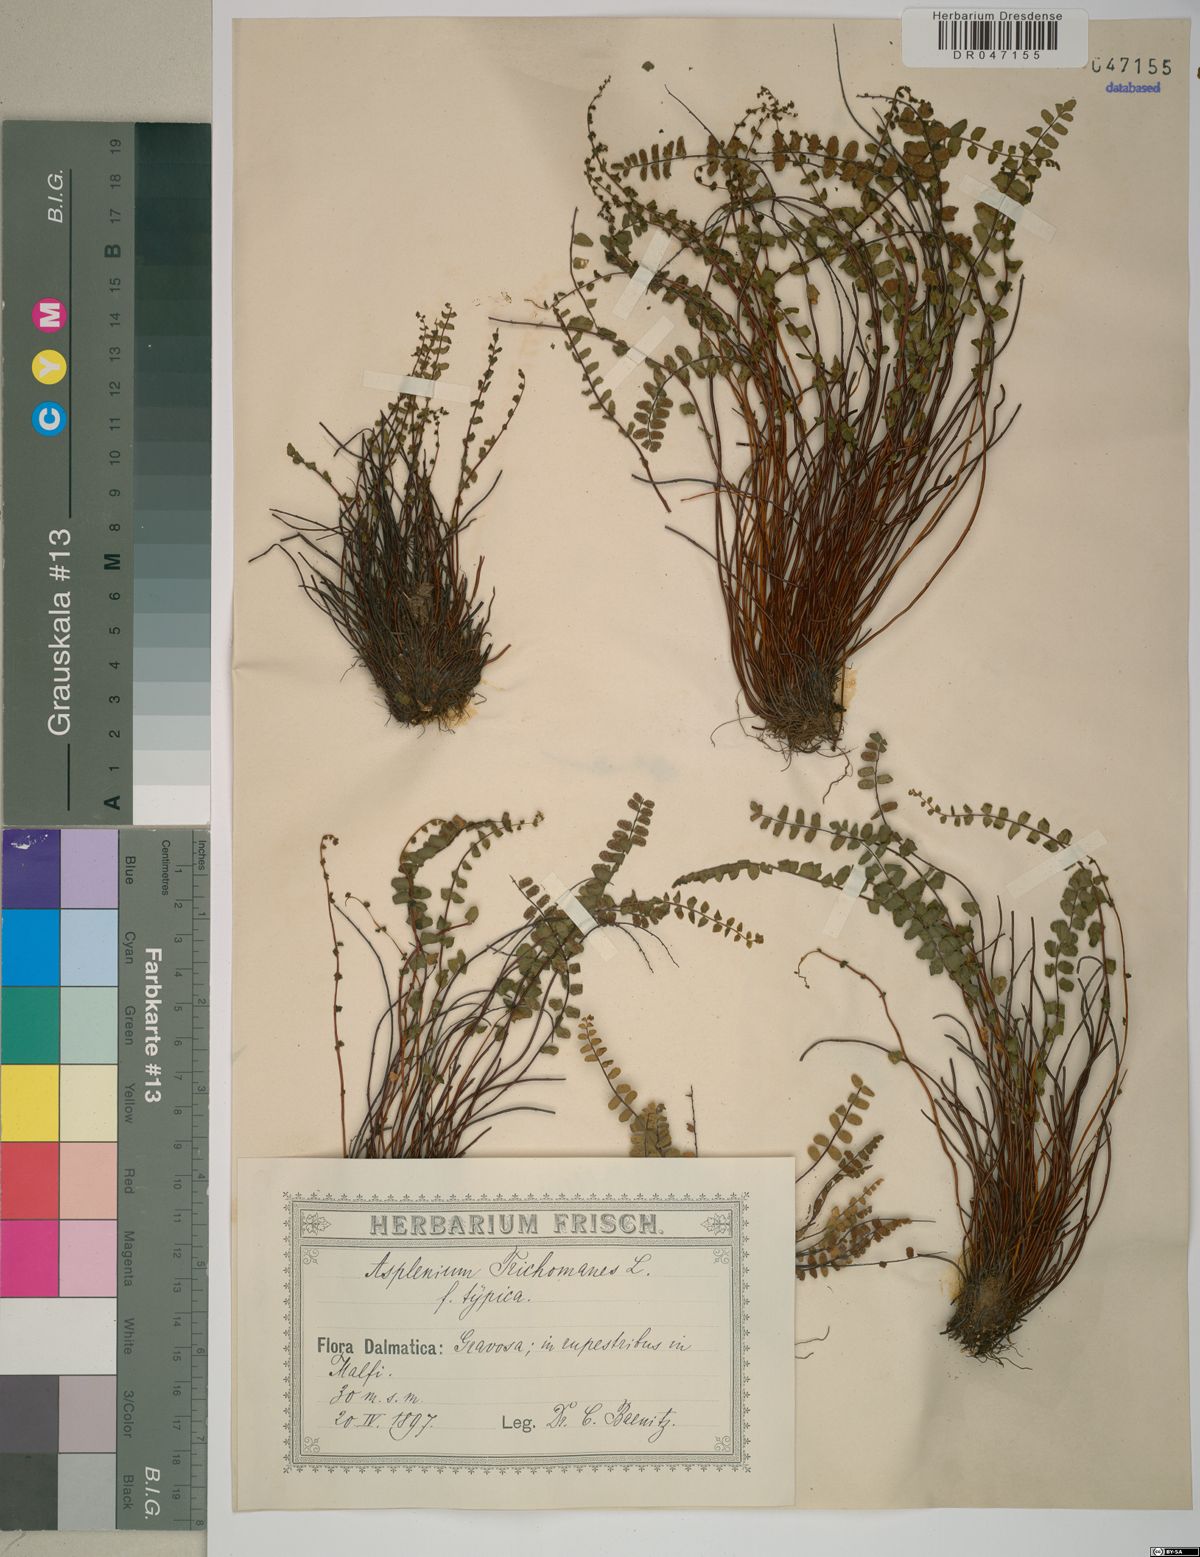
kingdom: Plantae
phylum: Tracheophyta
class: Polypodiopsida
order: Polypodiales
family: Aspleniaceae
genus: Asplenium
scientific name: Asplenium trichomanes
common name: Maidenhair spleenwort
